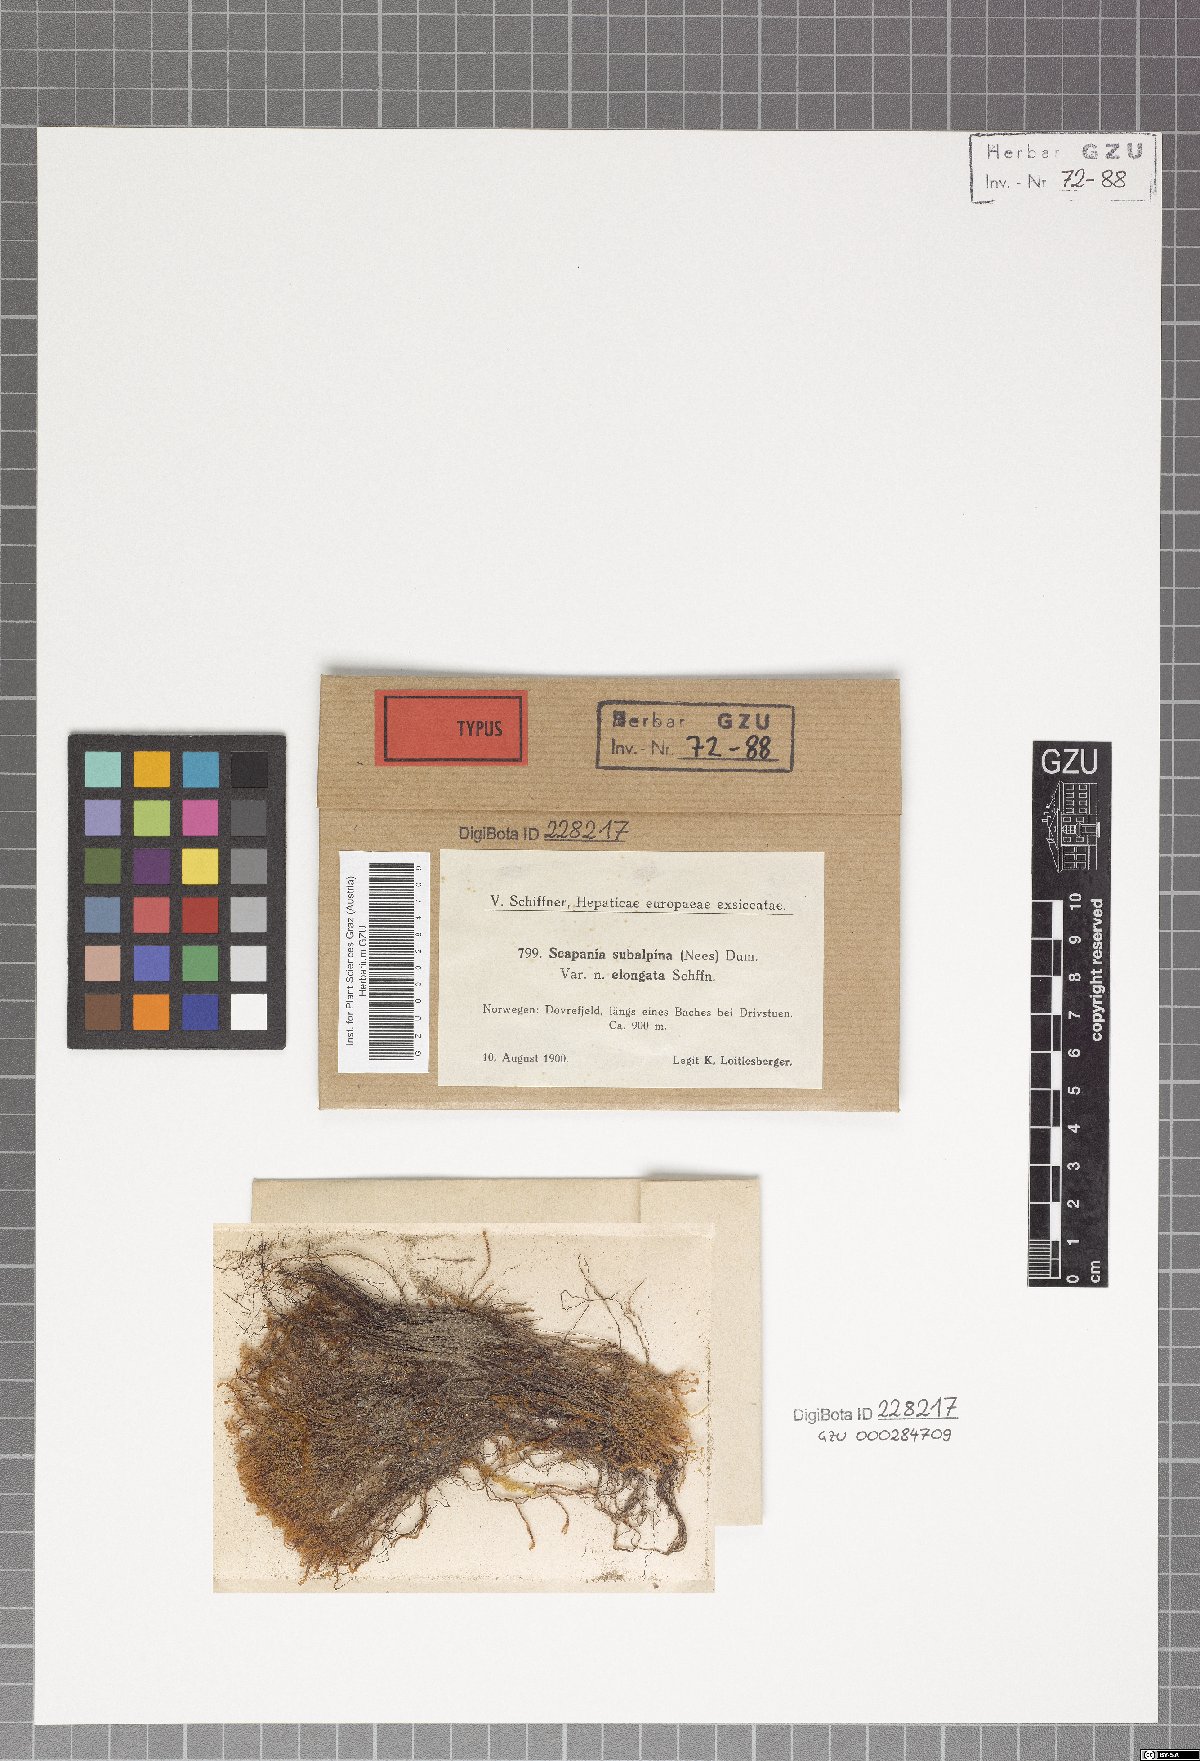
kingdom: Plantae
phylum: Marchantiophyta
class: Jungermanniopsida
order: Jungermanniales
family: Scapaniaceae
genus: Scapania
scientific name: Scapania subalpina
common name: Subalpine earwort
